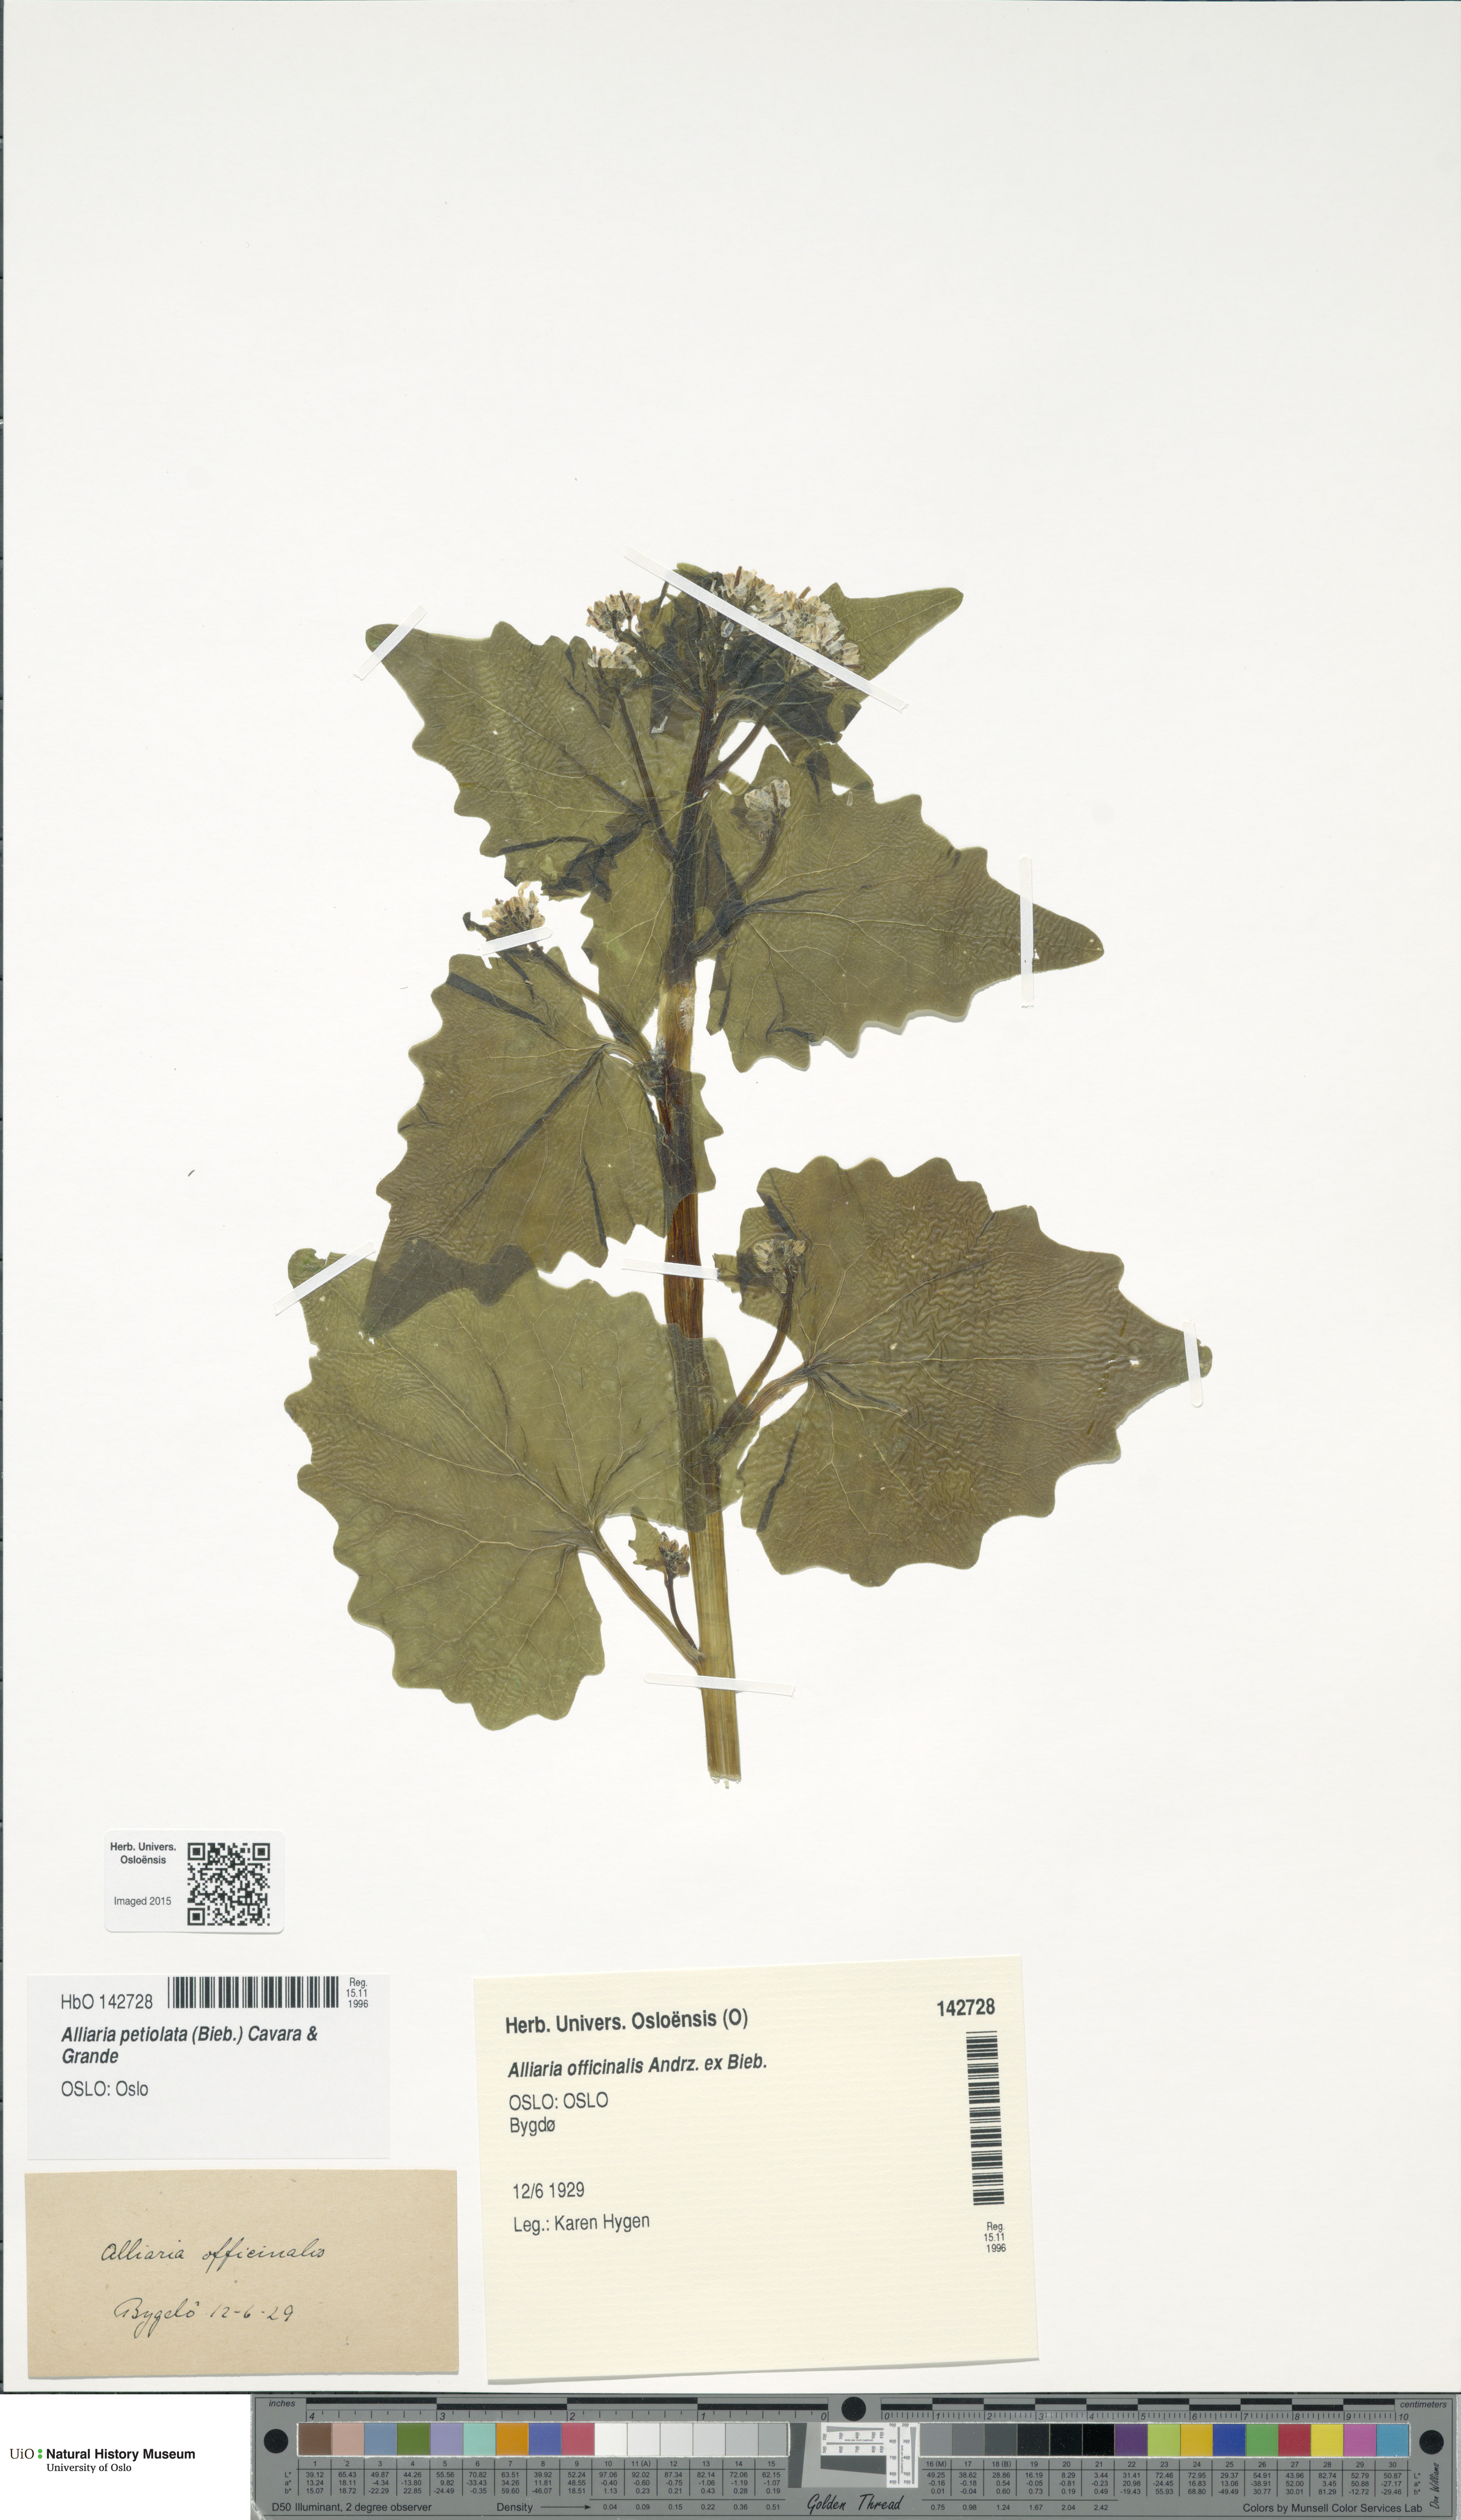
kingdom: Plantae
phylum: Tracheophyta
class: Magnoliopsida
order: Brassicales
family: Brassicaceae
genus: Alliaria
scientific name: Alliaria petiolata
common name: Garlic mustard
